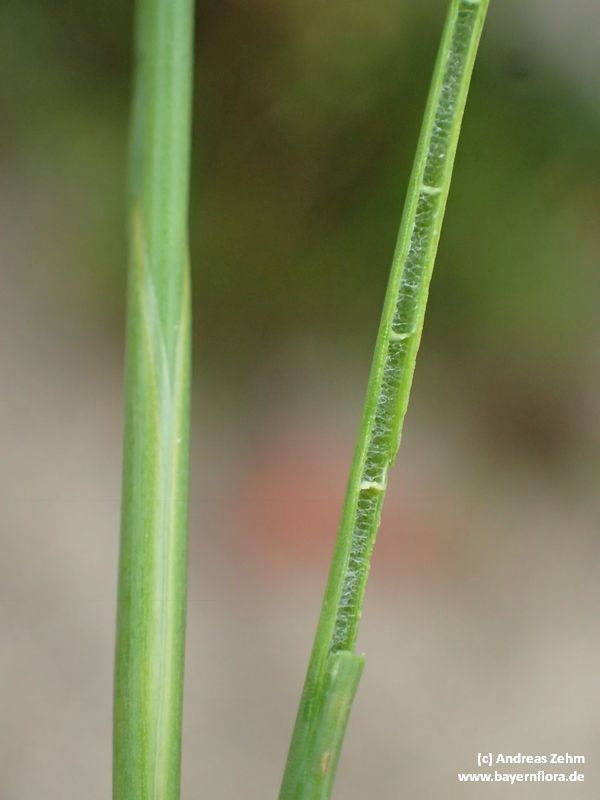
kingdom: Plantae
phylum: Tracheophyta
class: Liliopsida
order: Poales
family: Juncaceae
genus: Juncus
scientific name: Juncus articulatus
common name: Jointed rush
